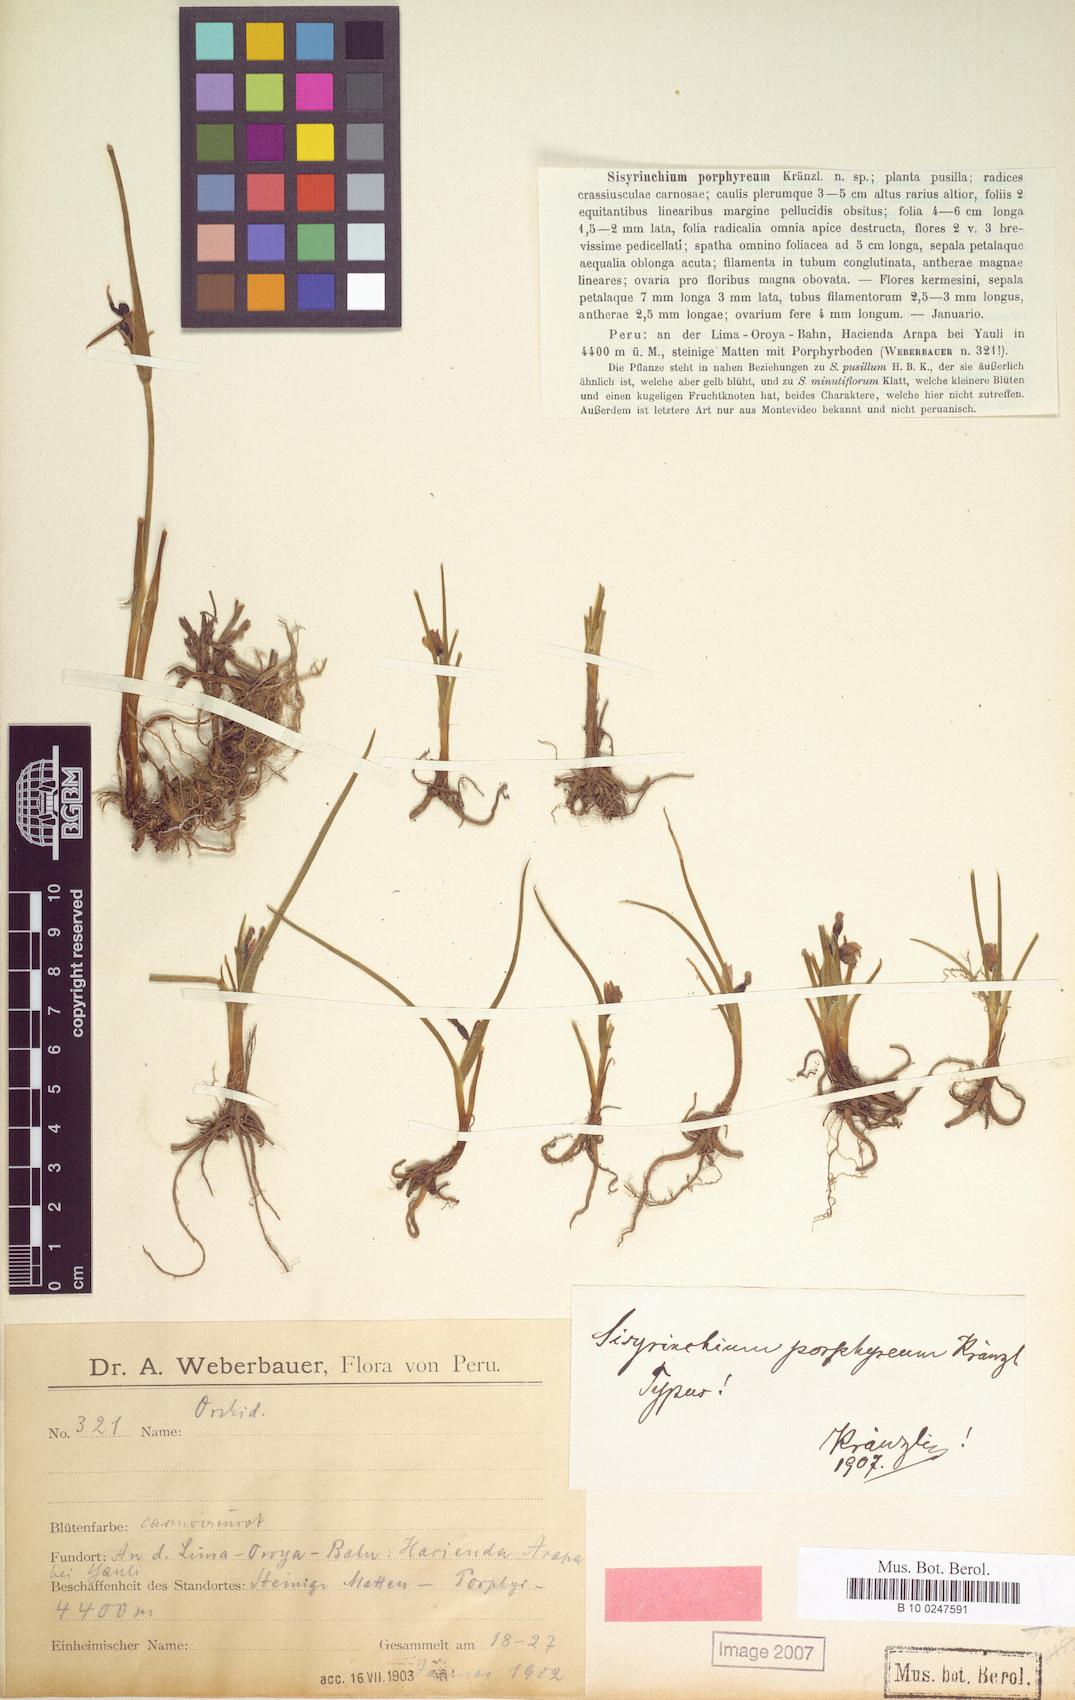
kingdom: Plantae
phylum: Tracheophyta
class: Liliopsida
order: Asparagales
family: Iridaceae
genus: Olsynium
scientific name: Olsynium porphyreum
